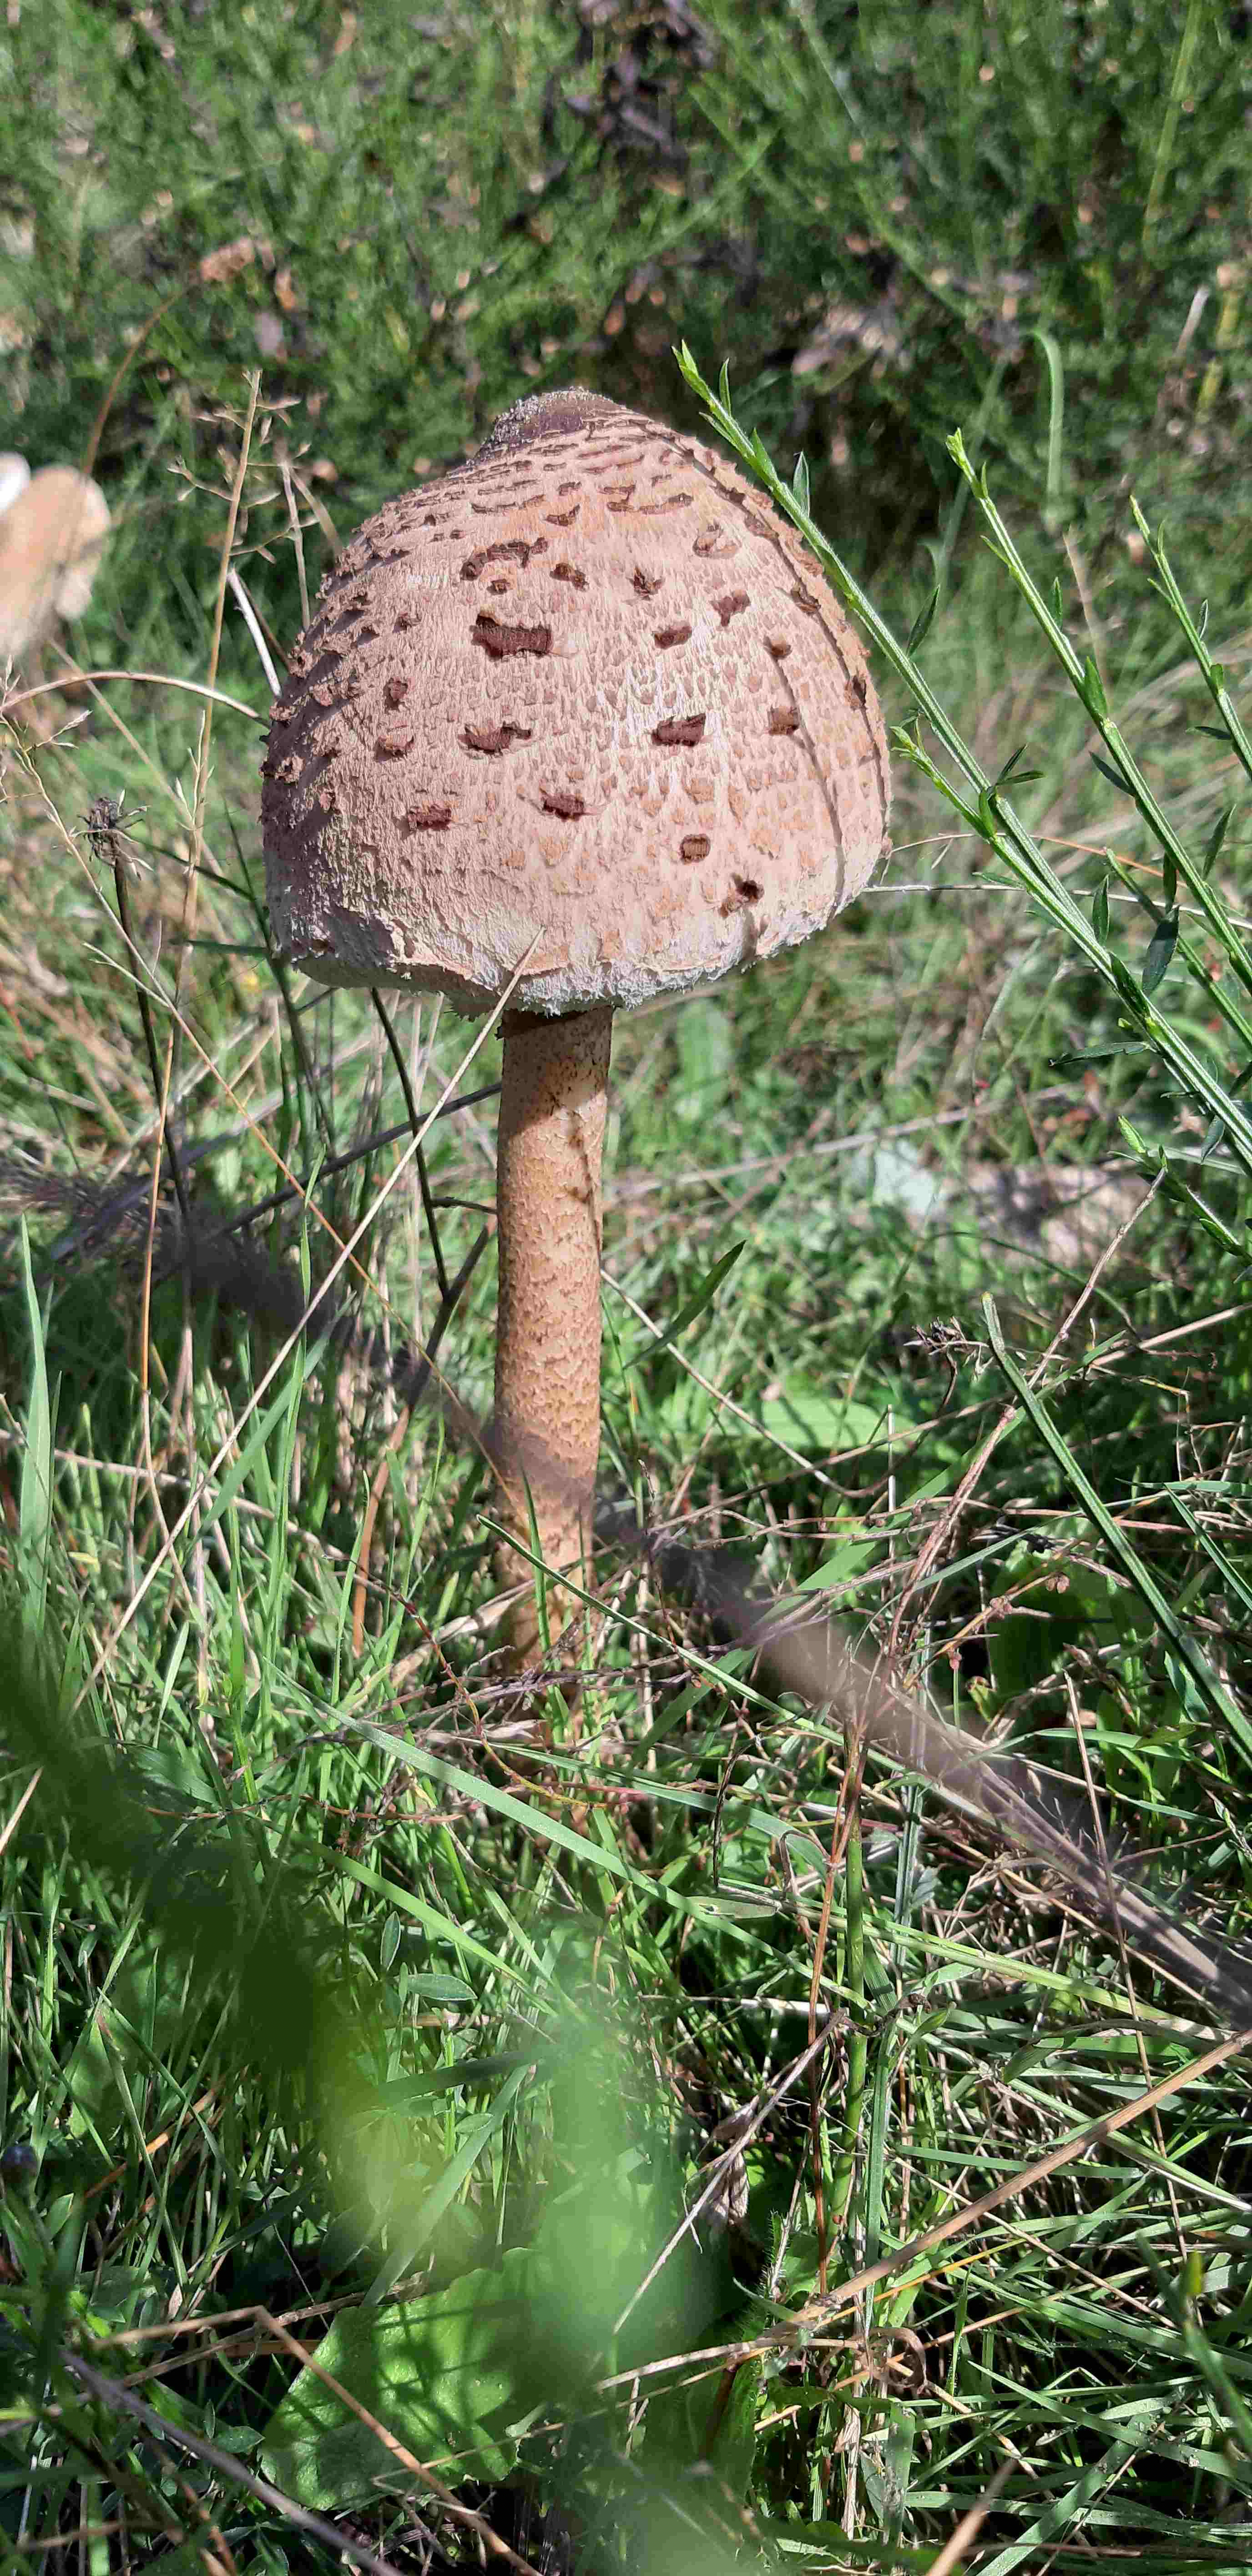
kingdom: Fungi
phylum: Basidiomycota
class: Agaricomycetes
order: Agaricales
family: Agaricaceae
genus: Macrolepiota
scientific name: Macrolepiota procera
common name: stor kæmpeparasolhat
